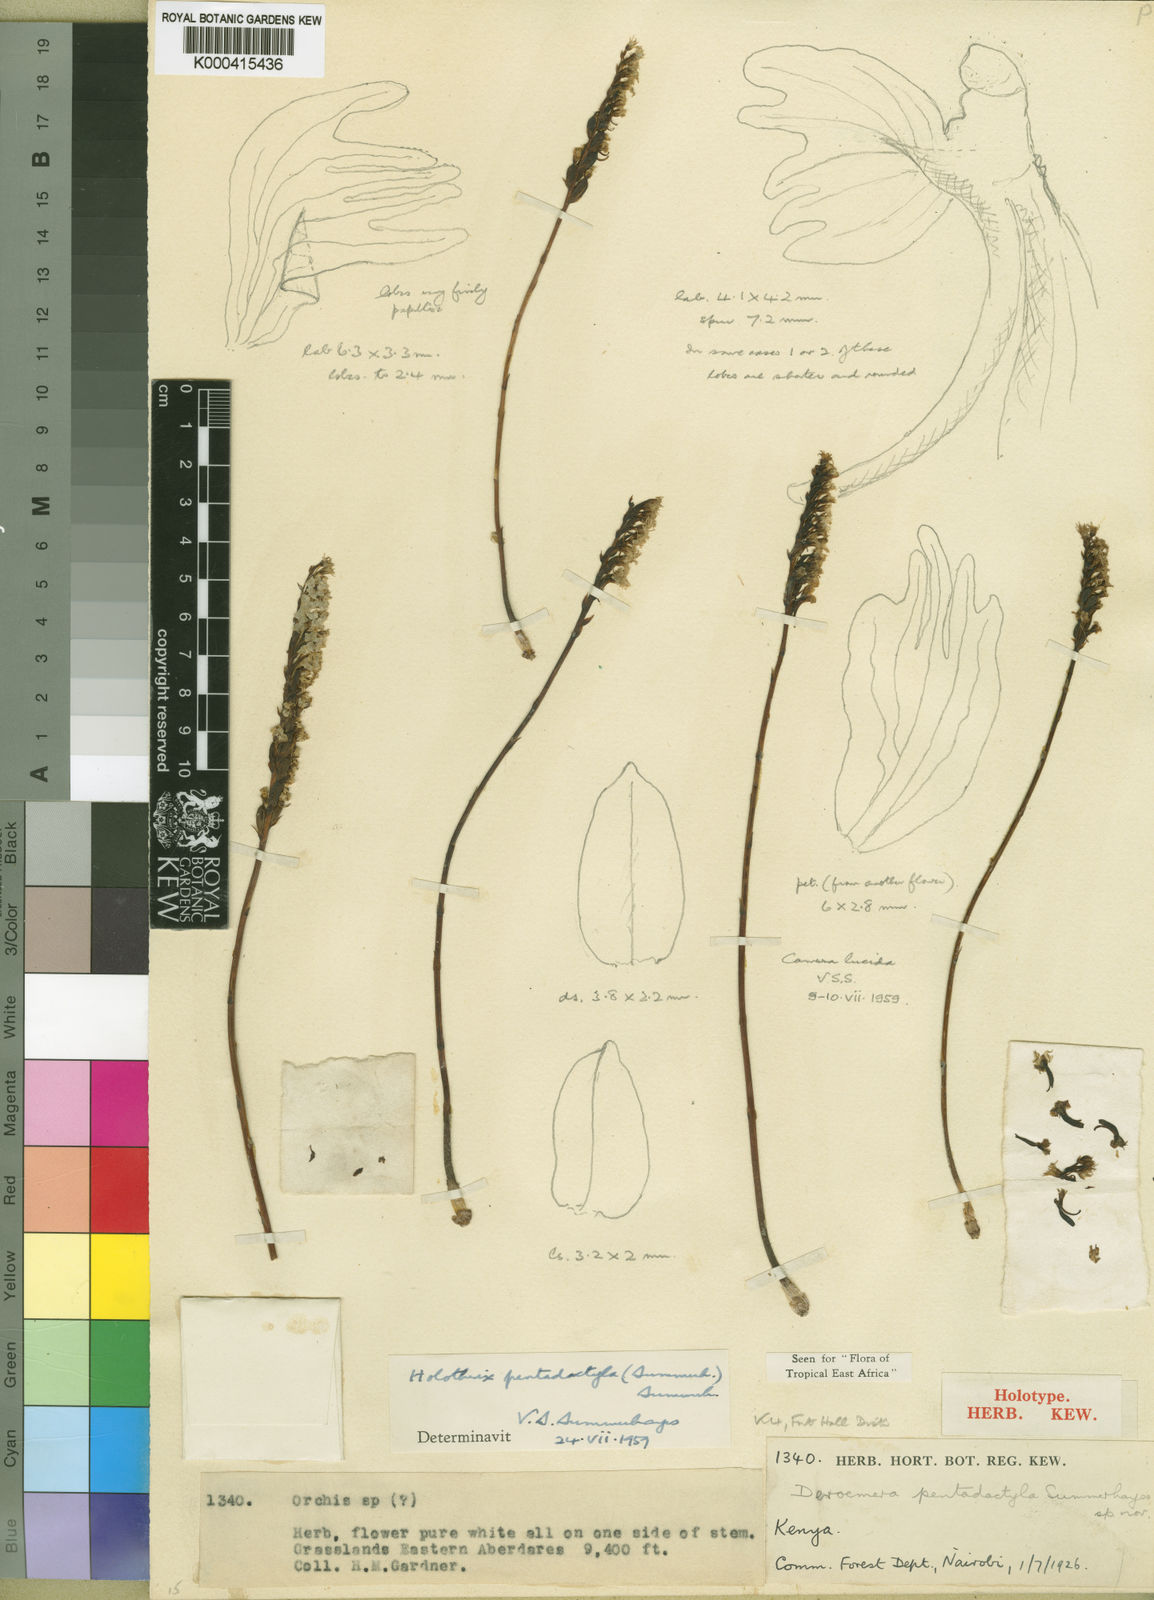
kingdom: Plantae
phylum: Tracheophyta
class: Liliopsida
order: Asparagales
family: Orchidaceae
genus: Holothrix
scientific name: Holothrix pentadactyla
